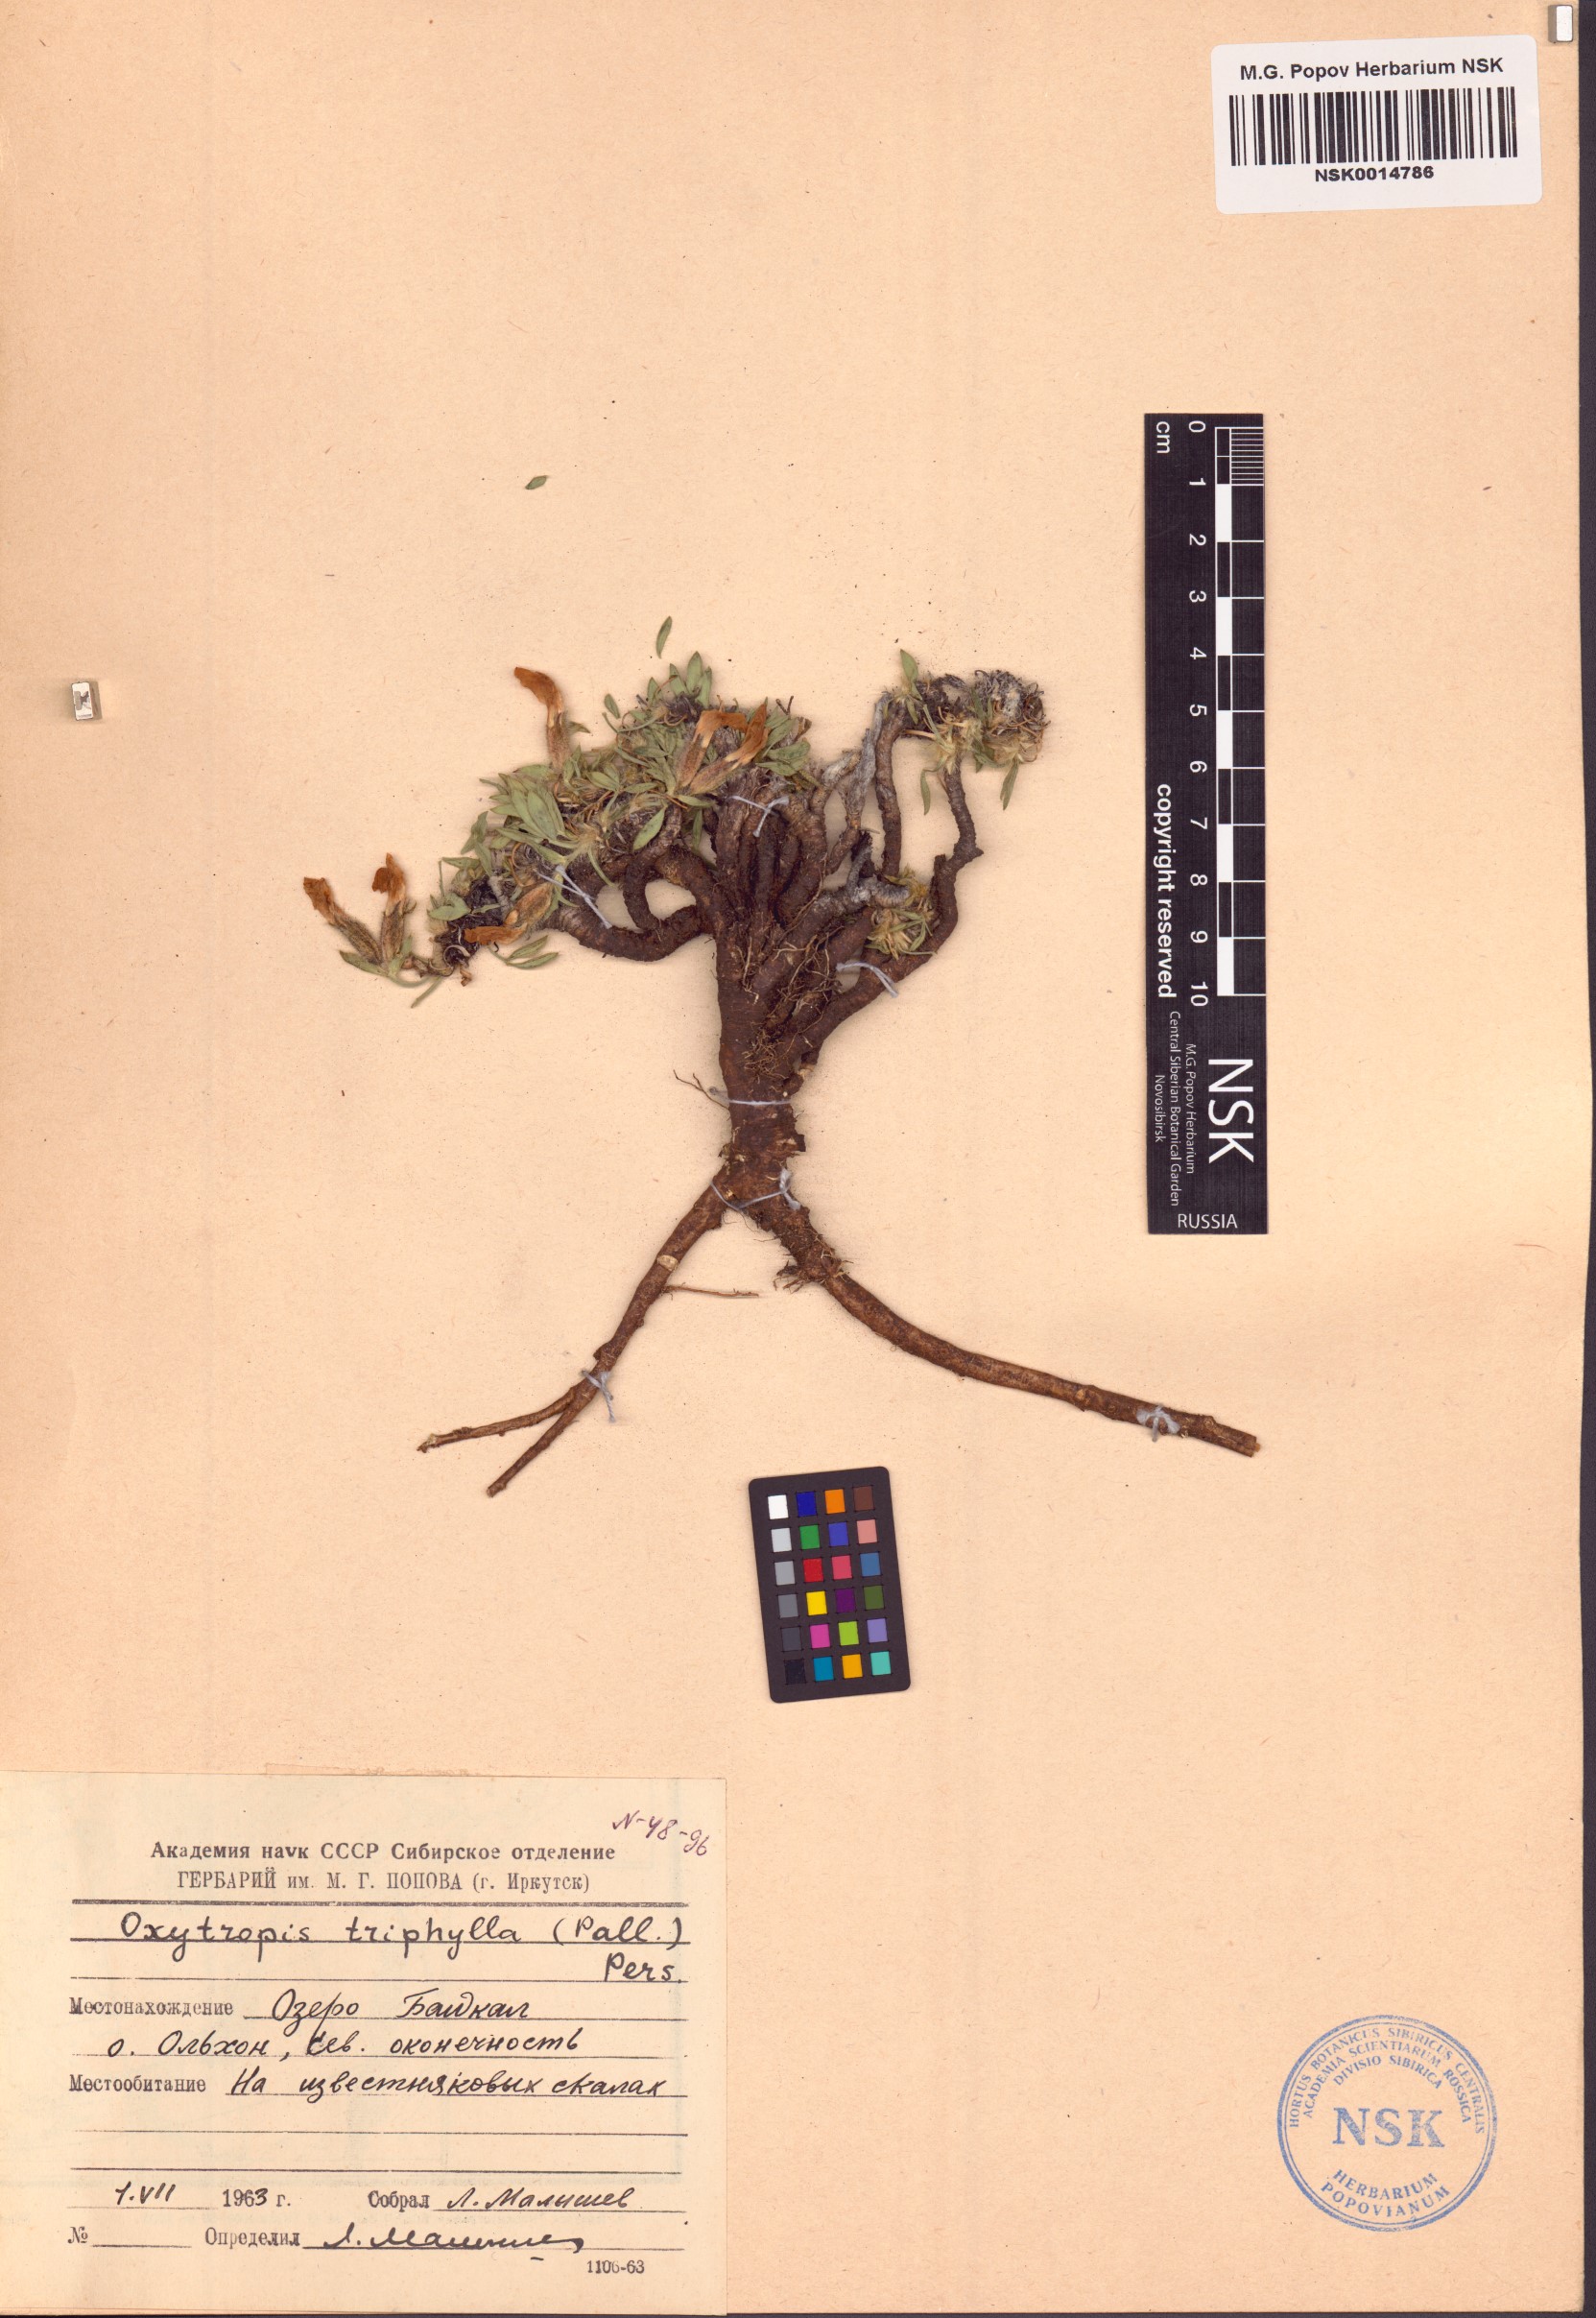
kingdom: Plantae
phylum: Tracheophyta
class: Magnoliopsida
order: Fabales
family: Fabaceae
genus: Oxytropis
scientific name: Oxytropis triphylla
